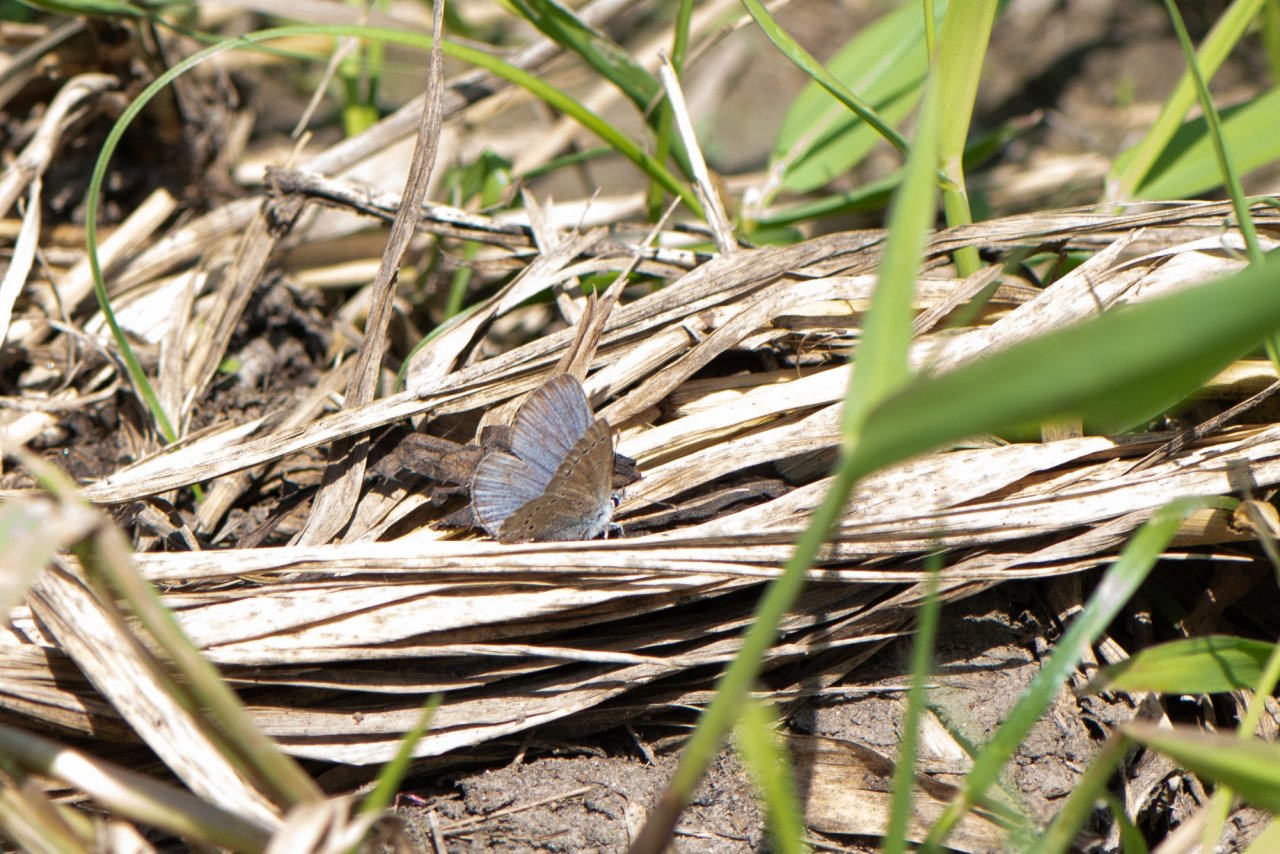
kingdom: Animalia
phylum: Arthropoda
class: Insecta
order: Lepidoptera
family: Lycaenidae
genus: Glaucopsyche
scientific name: Glaucopsyche lygdamus
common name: Silvery Blue
